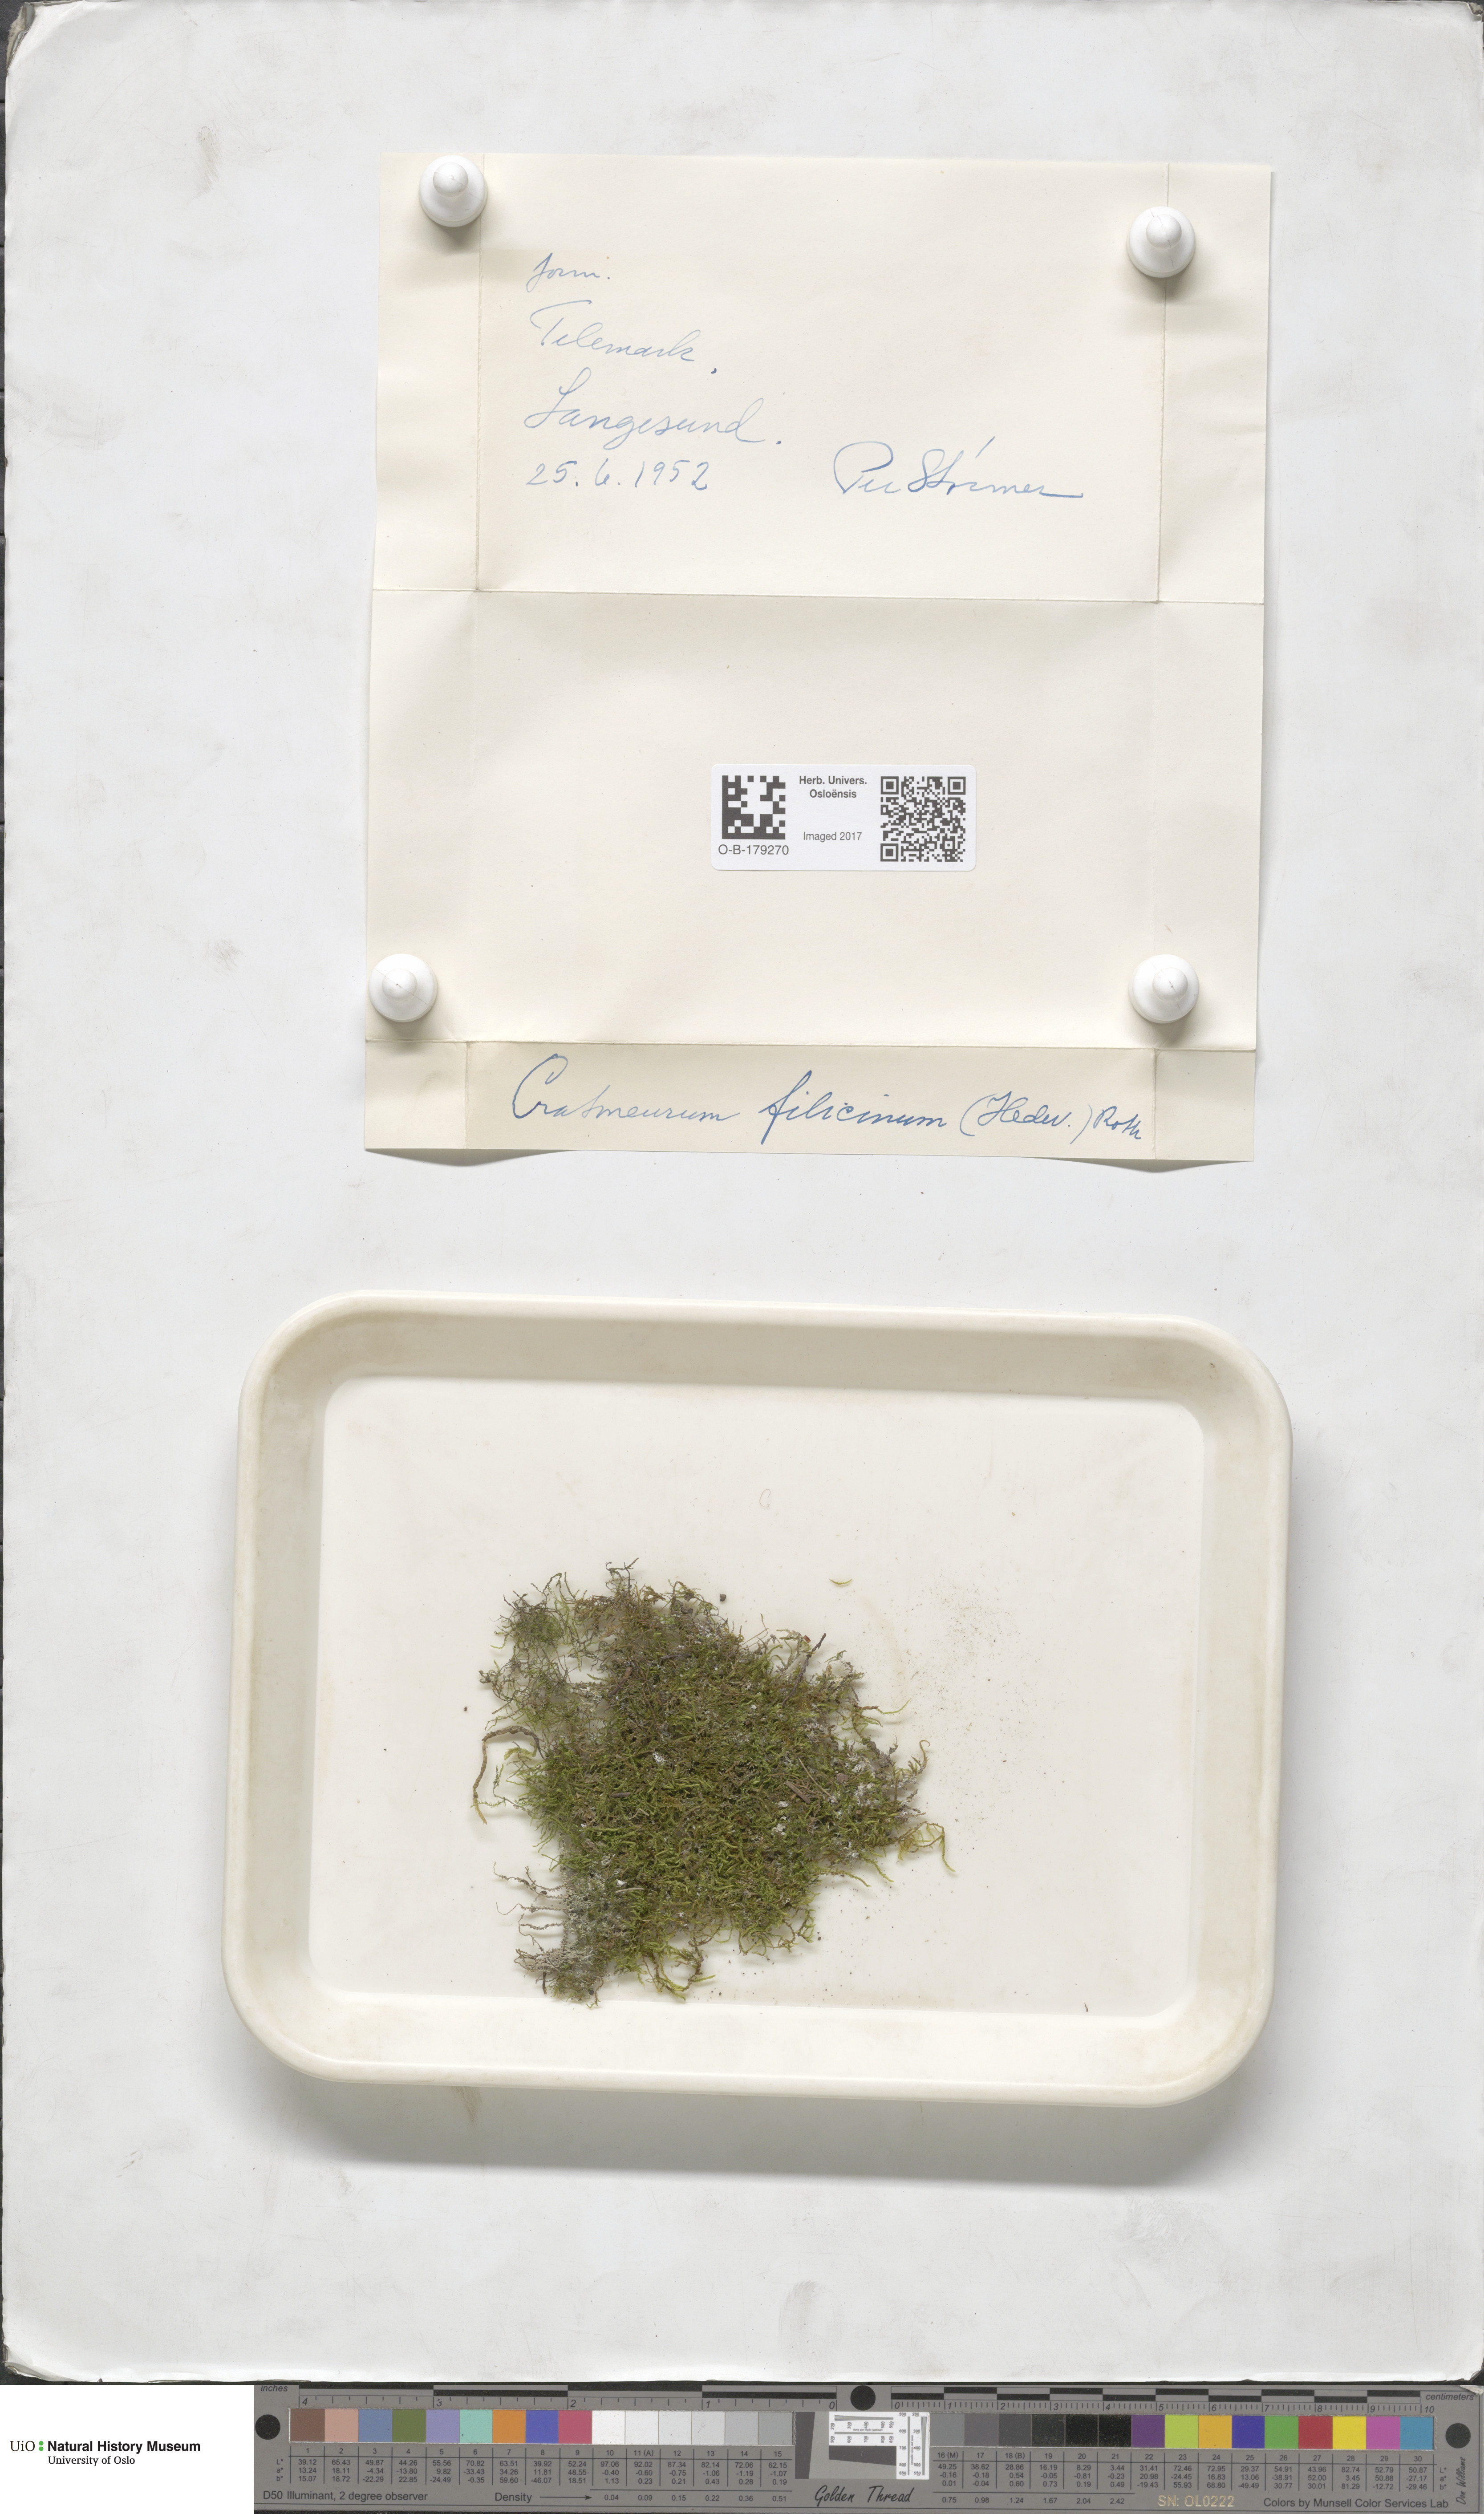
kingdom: Plantae
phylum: Bryophyta
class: Bryopsida
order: Hypnales
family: Amblystegiaceae
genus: Cratoneuron
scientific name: Cratoneuron filicinum
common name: Fern-leaved hook moss
